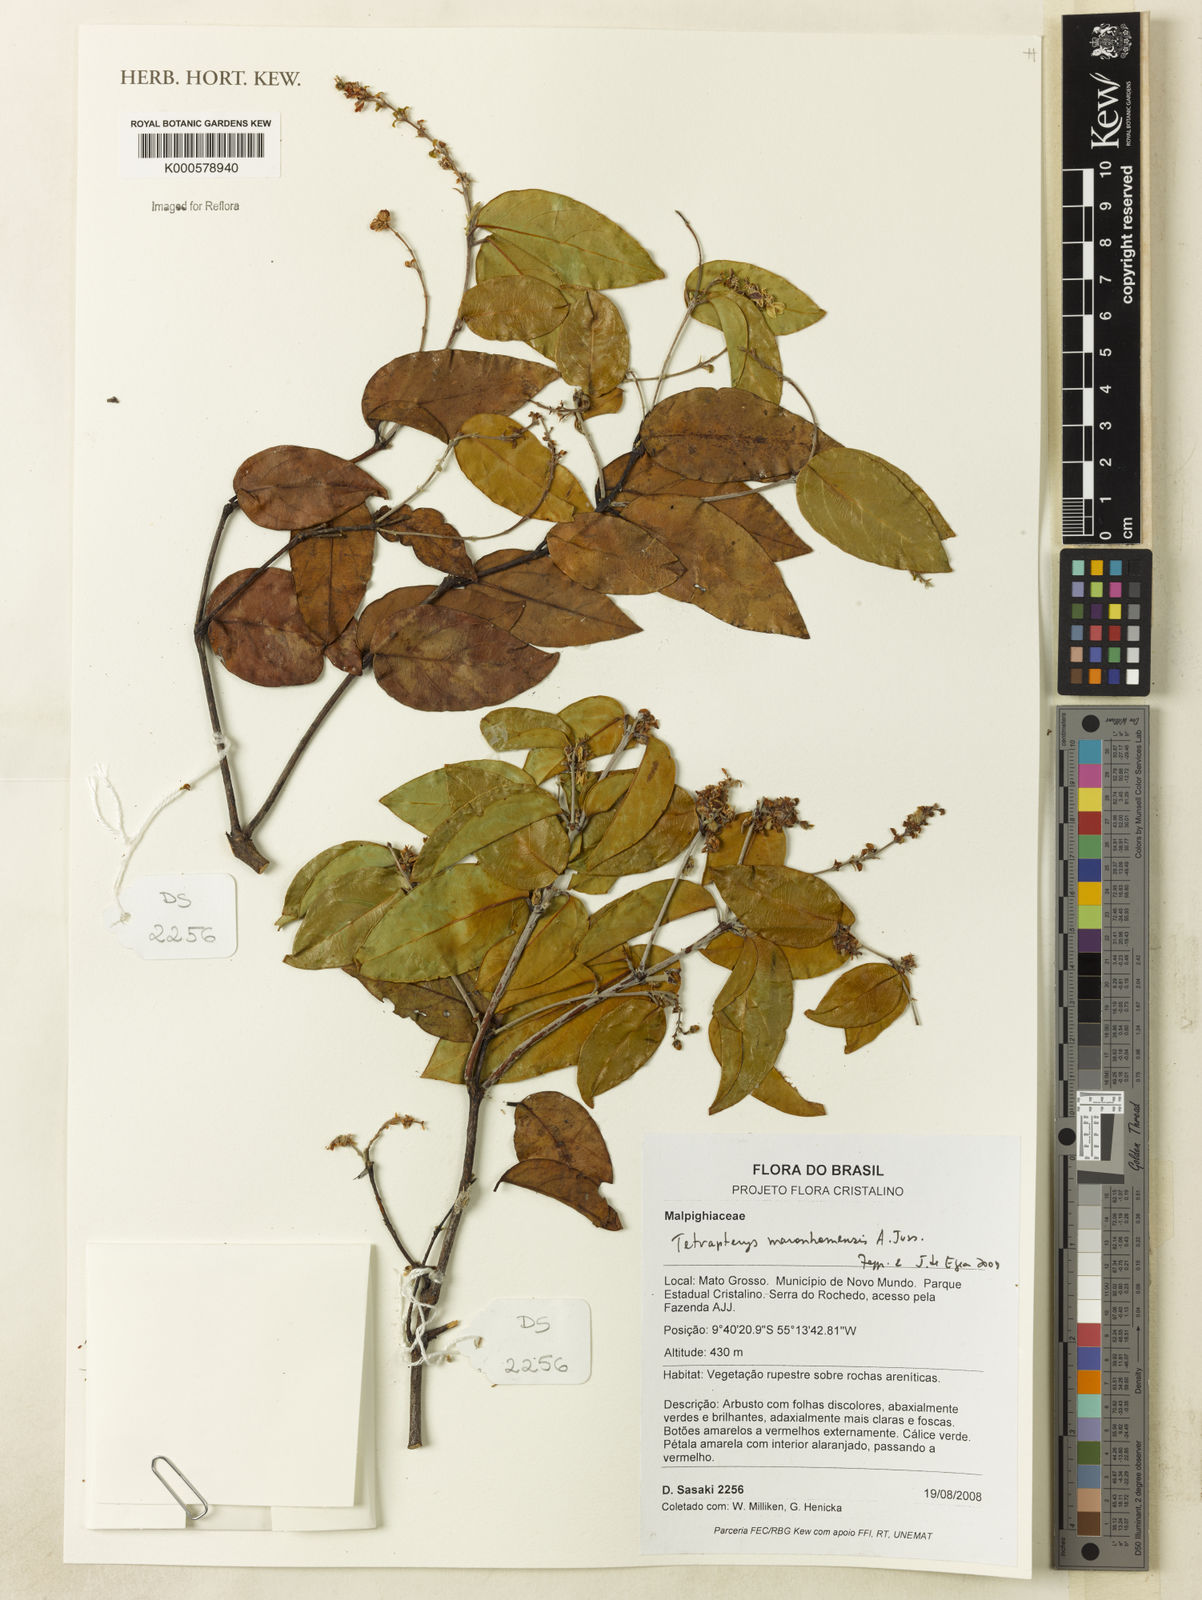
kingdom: Plantae
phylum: Tracheophyta
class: Magnoliopsida
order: Malpighiales
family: Malpighiaceae
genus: Glicophyllum
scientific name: Glicophyllum maranhamense
